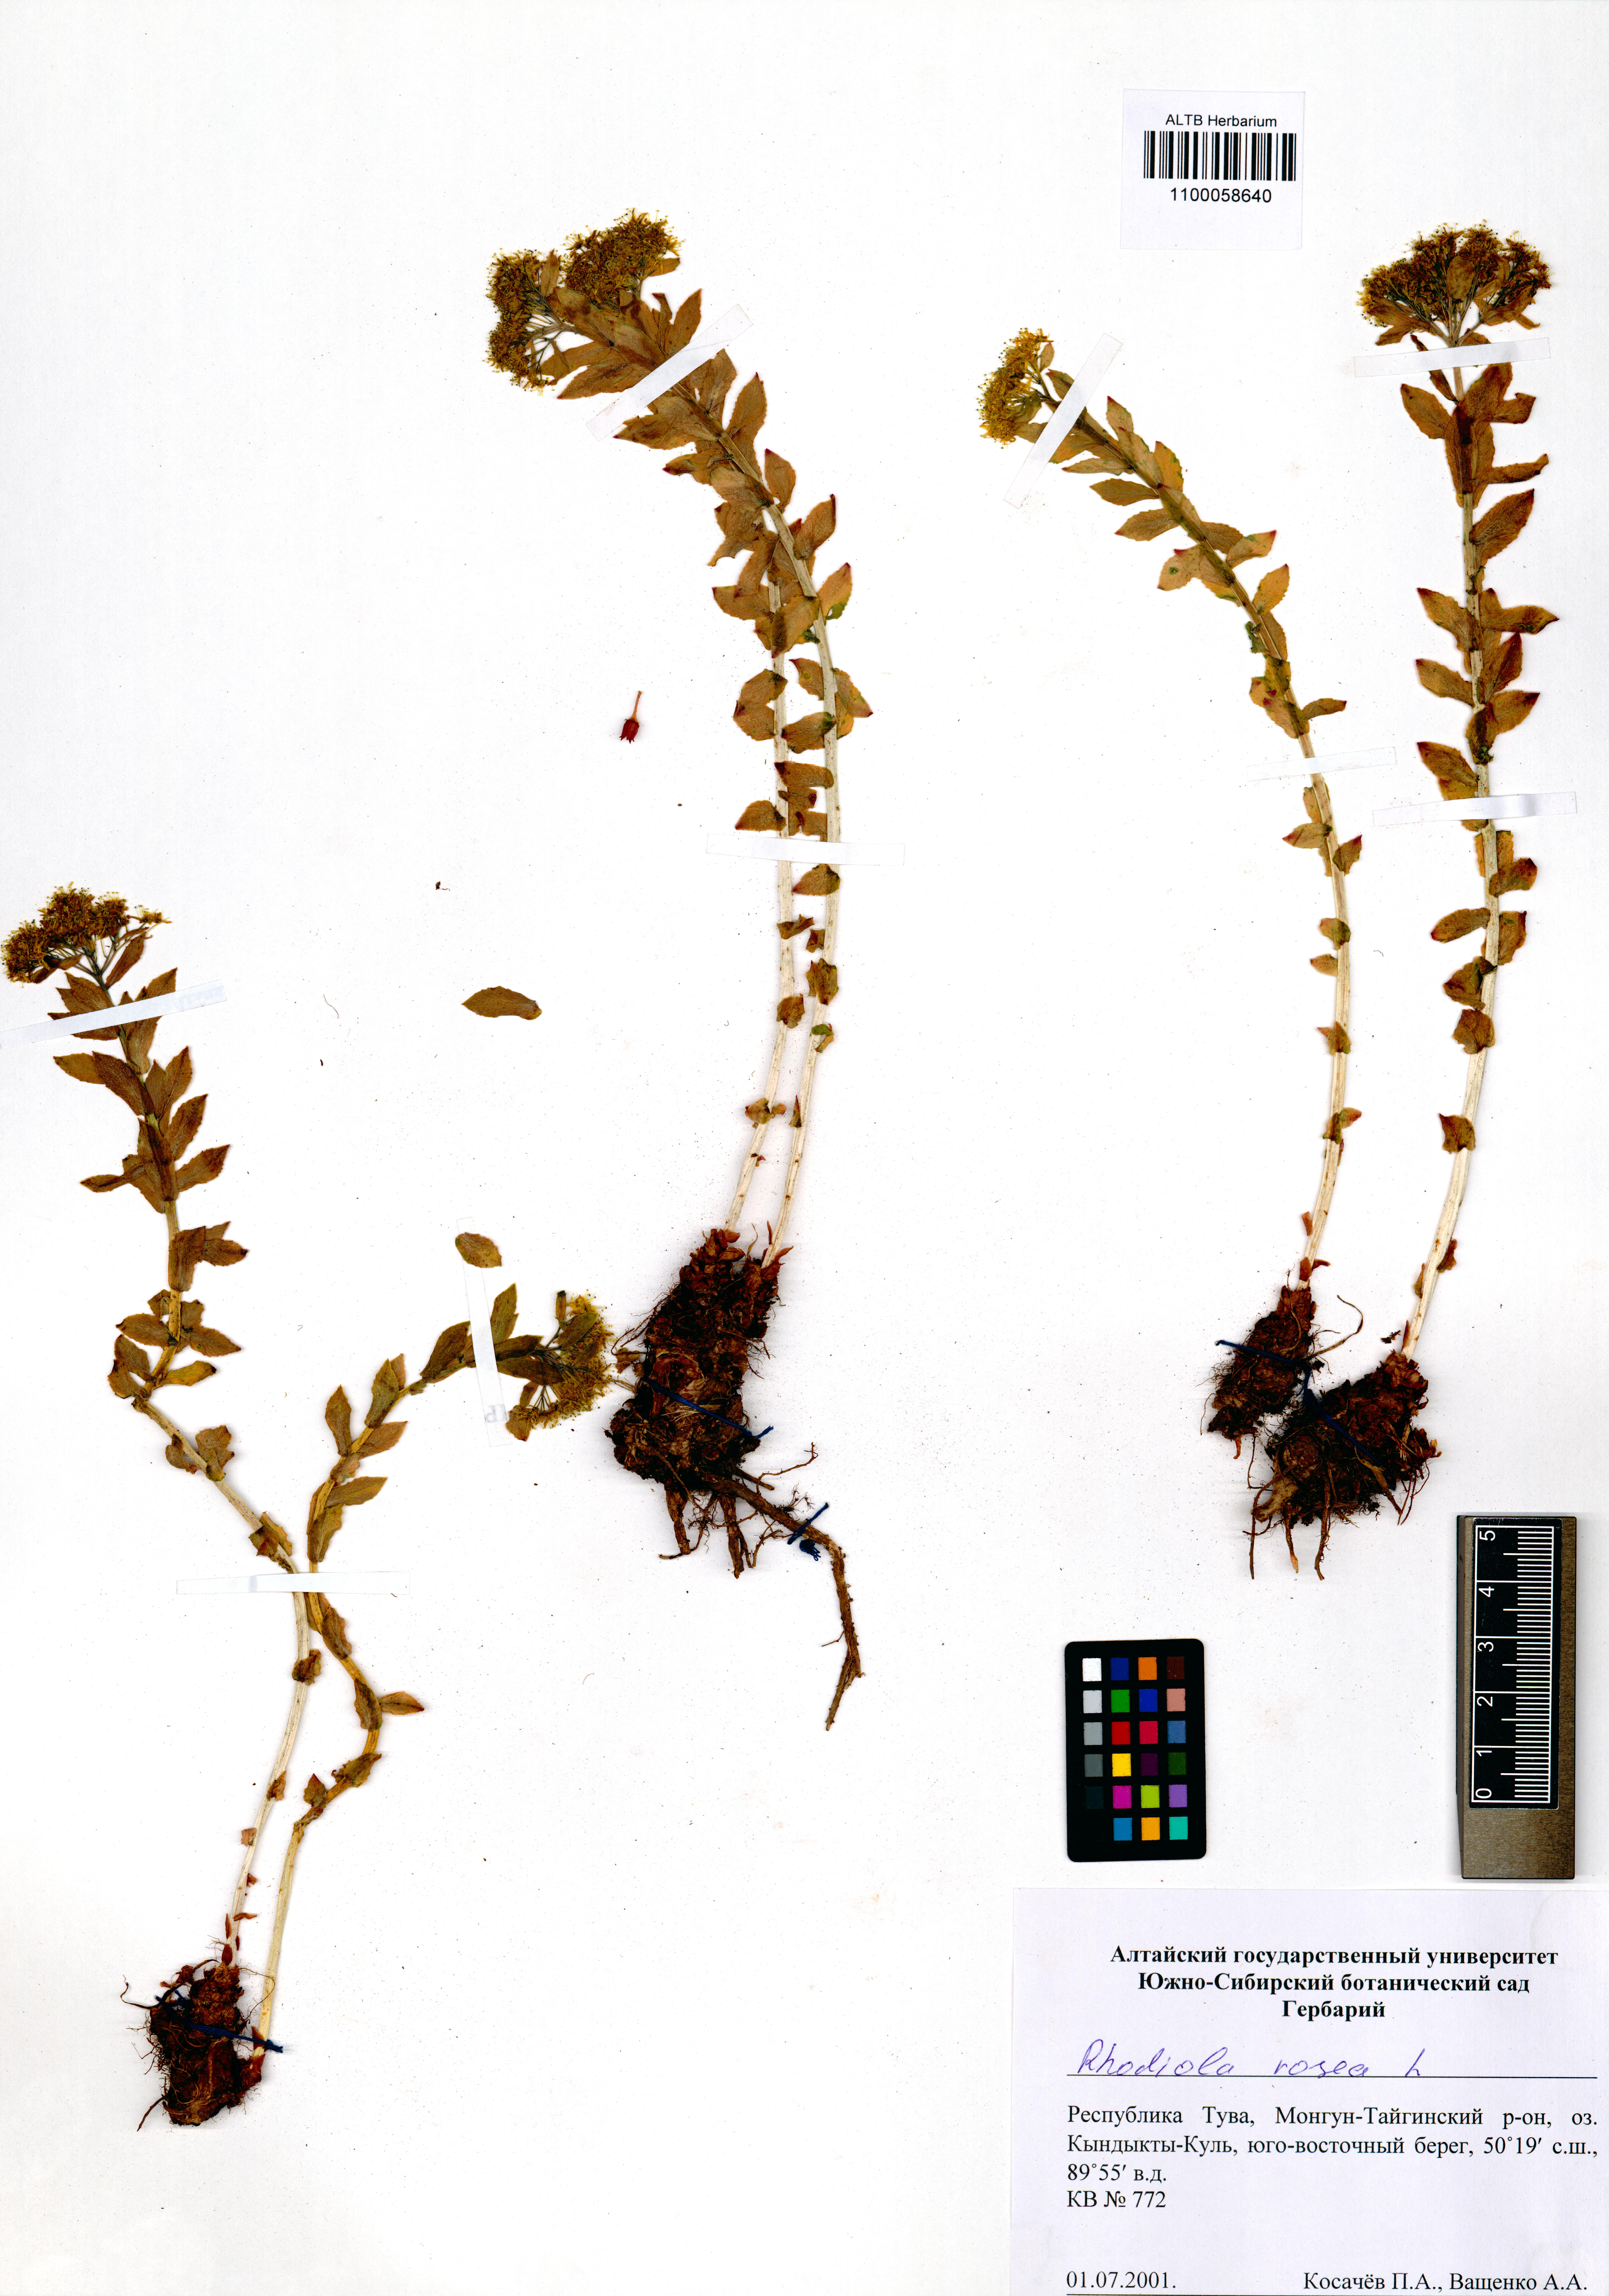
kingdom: Plantae
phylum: Tracheophyta
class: Magnoliopsida
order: Saxifragales
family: Crassulaceae
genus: Rhodiola
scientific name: Rhodiola rosea
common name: Roseroot
